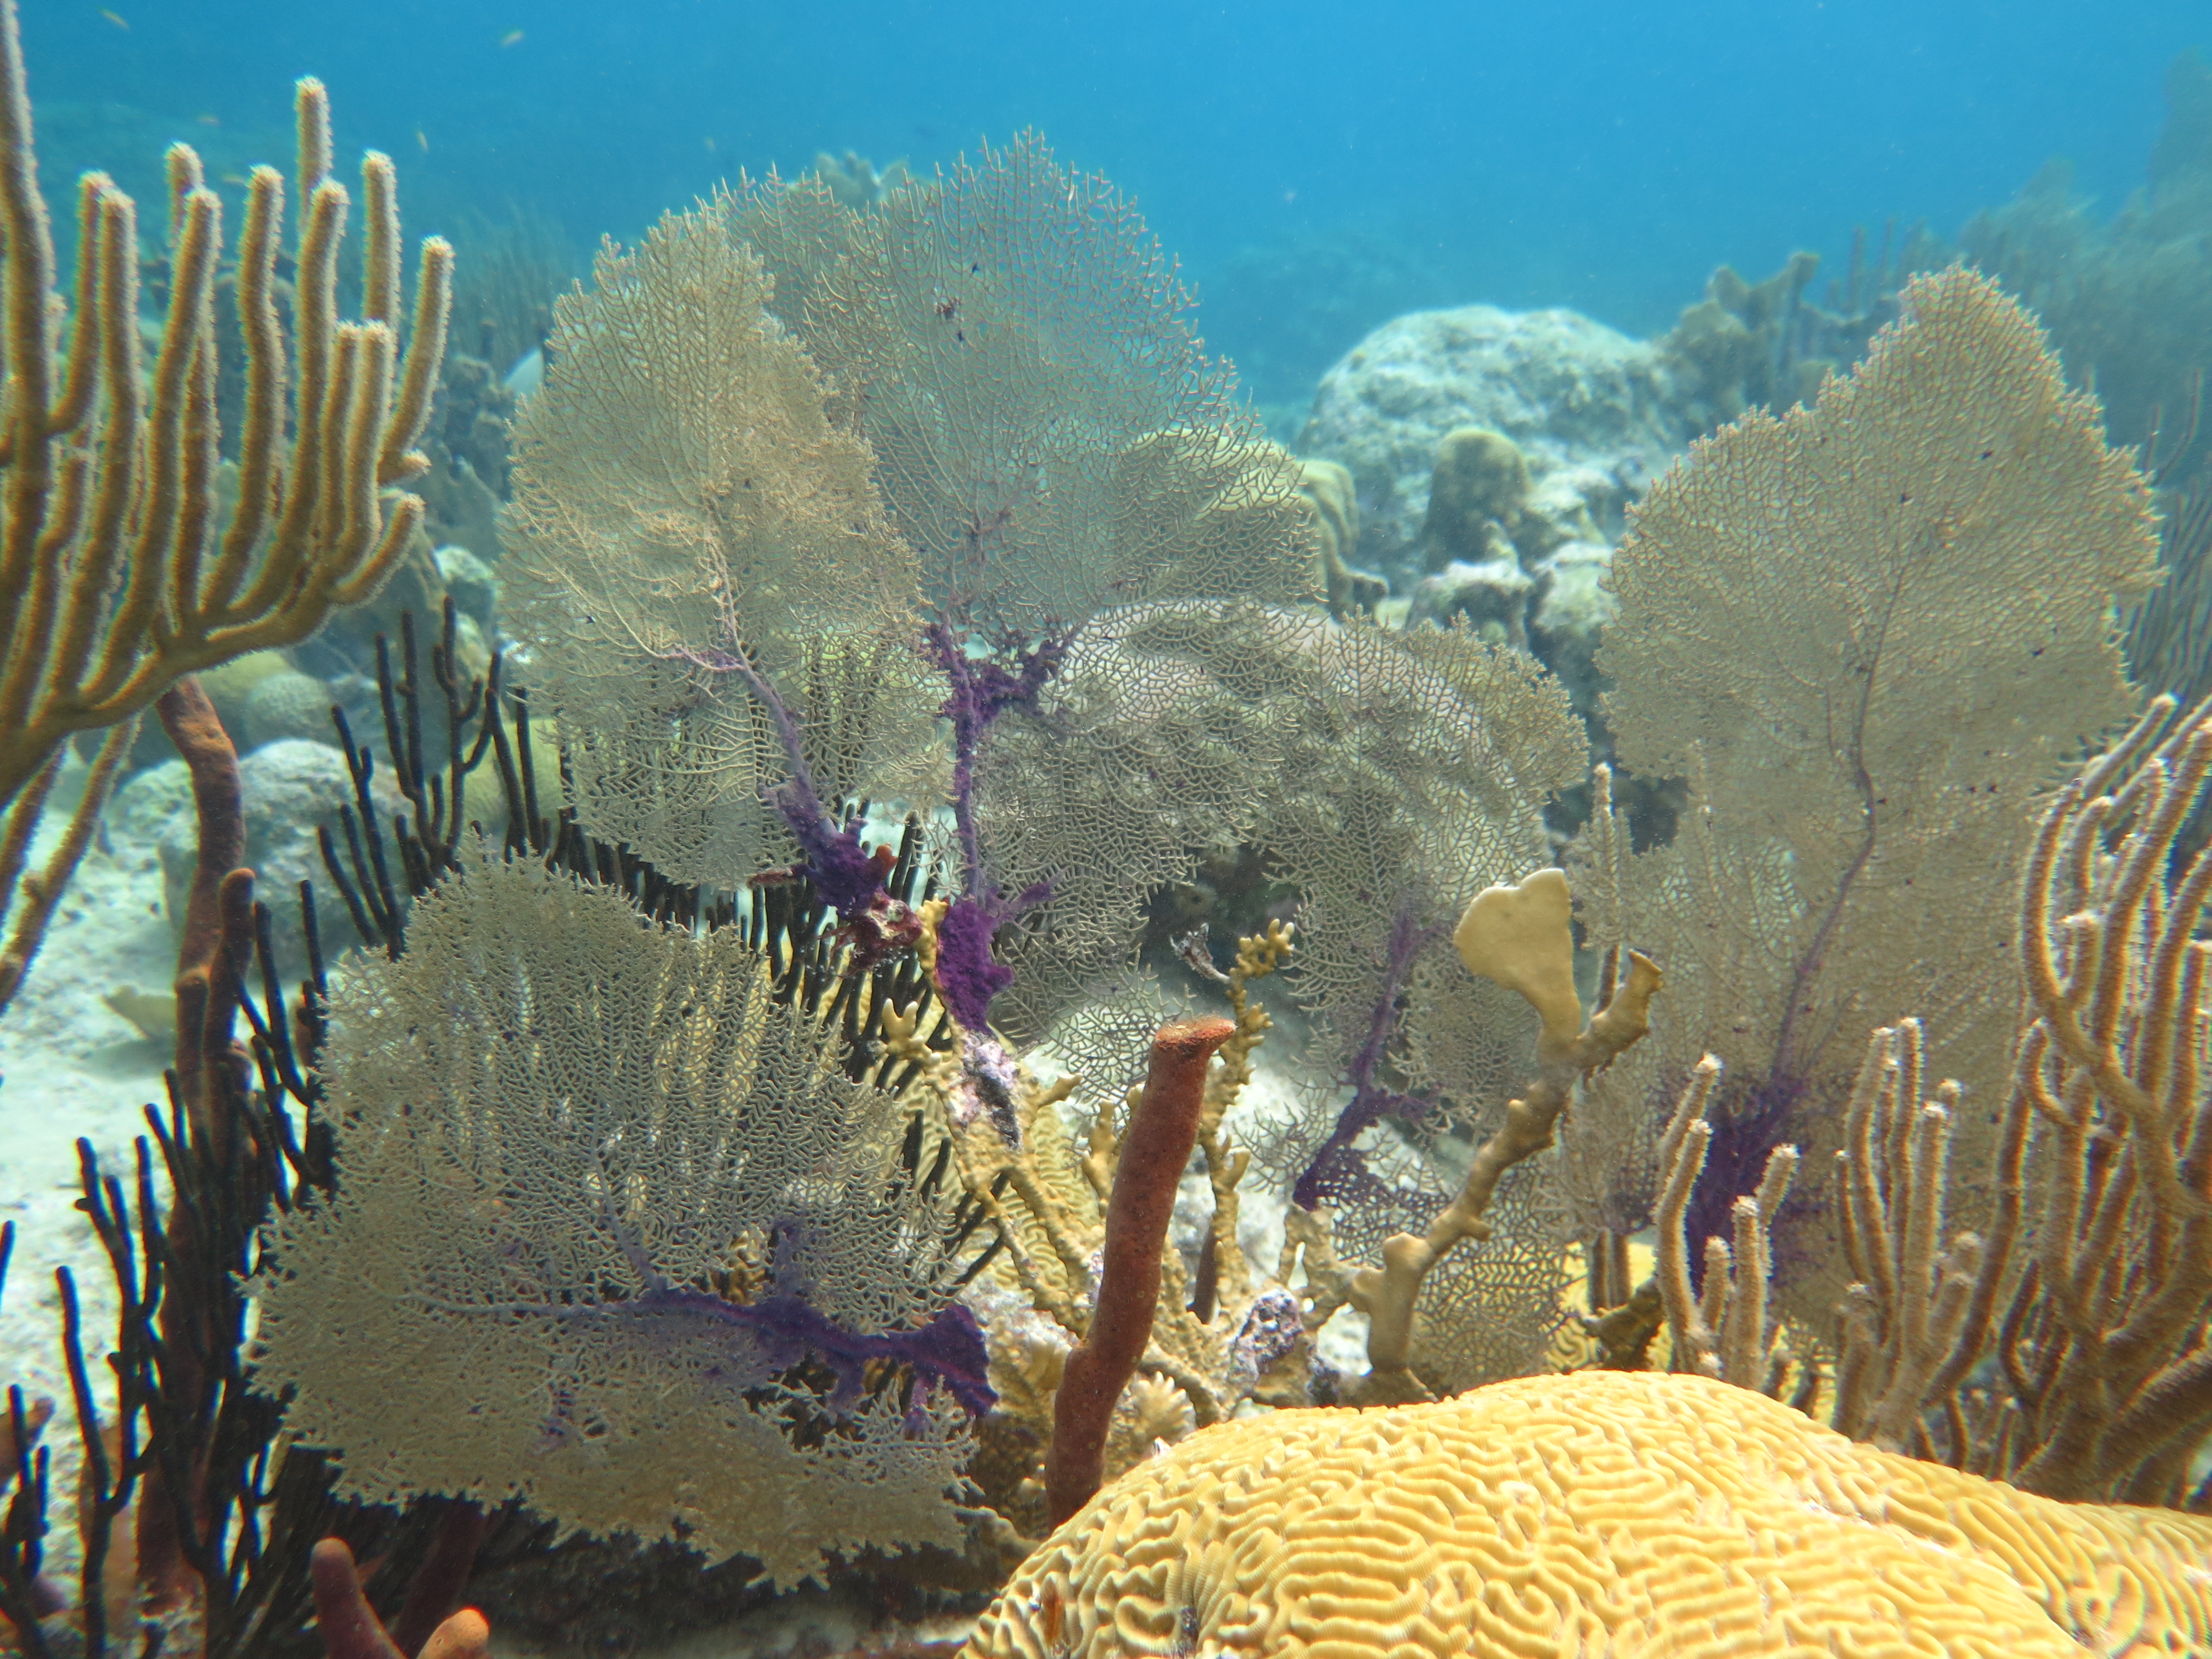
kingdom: Animalia
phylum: Cnidaria
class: Anthozoa
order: Malacalcyonacea
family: Gorgoniidae
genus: Gorgonia
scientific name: Gorgonia ventalina
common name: Common sea fan
